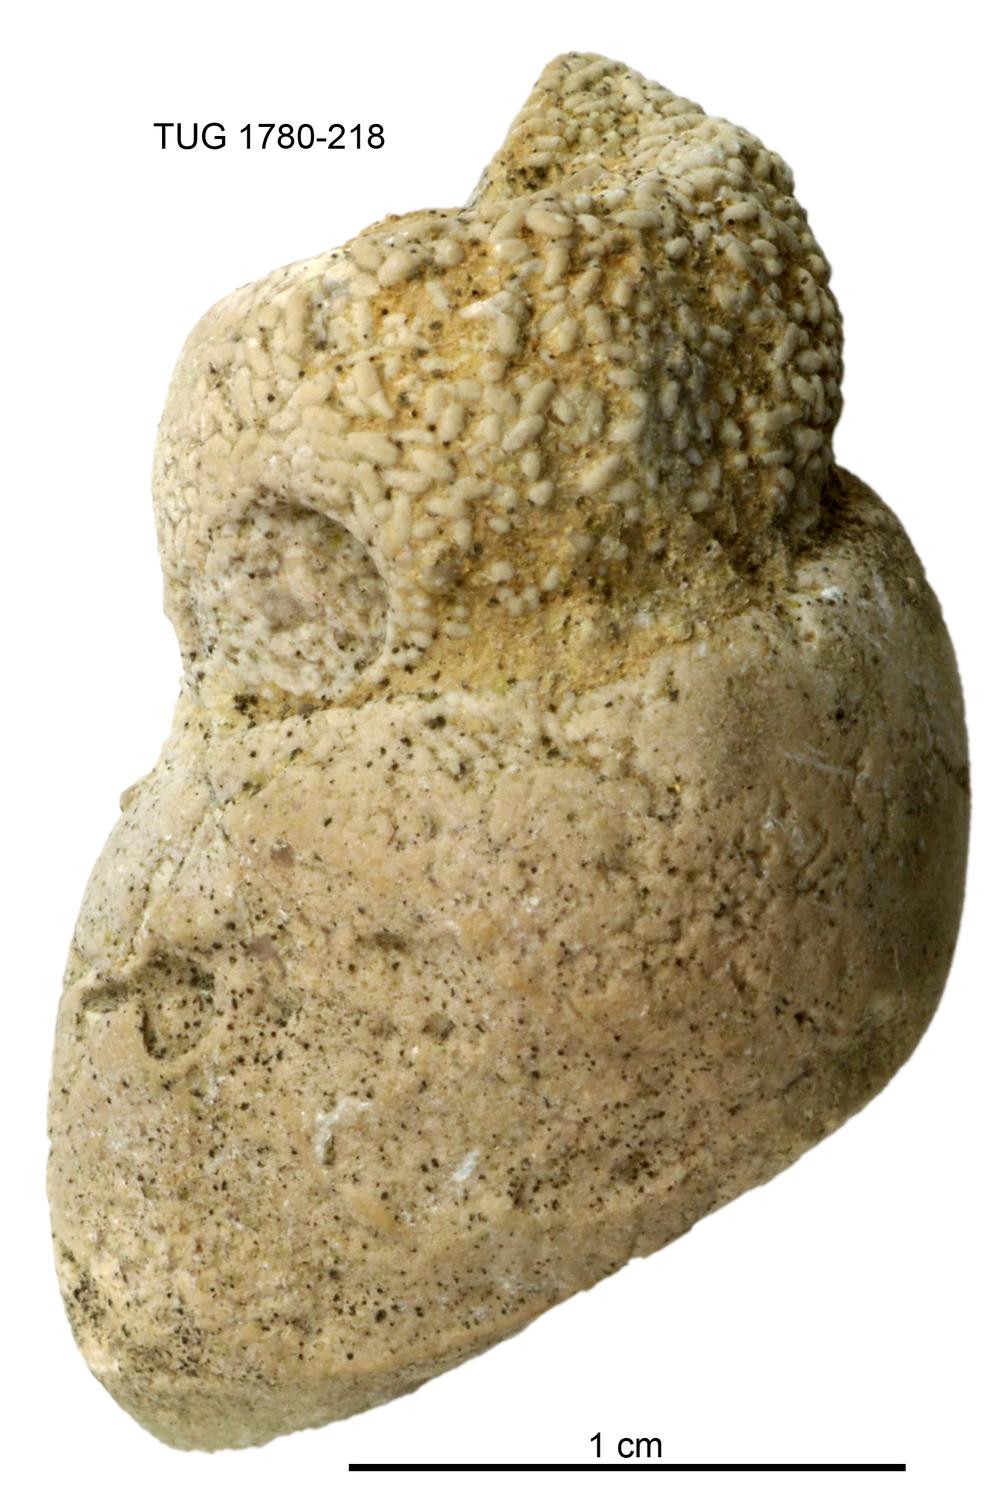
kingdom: Animalia
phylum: Mollusca
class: Gastropoda
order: Pleurotomariida
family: Murchisoniidae
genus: Murchisonia
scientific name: Murchisonia insignis
